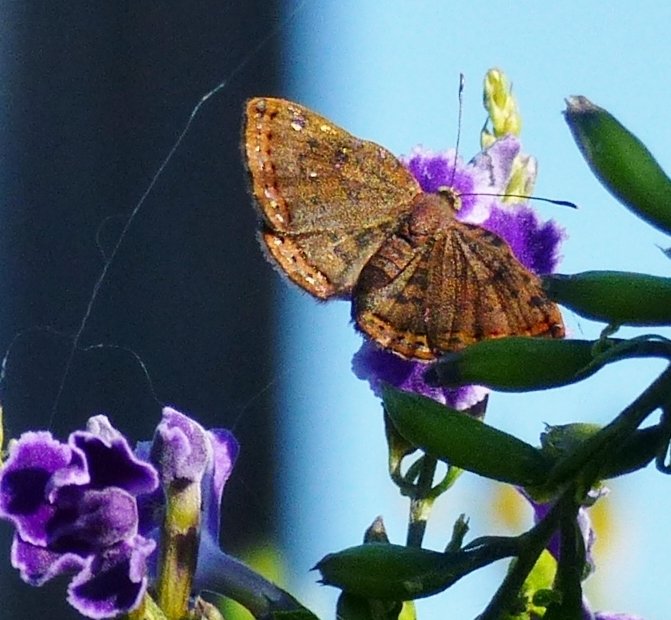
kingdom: Animalia
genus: Caria
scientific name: Caria ino
